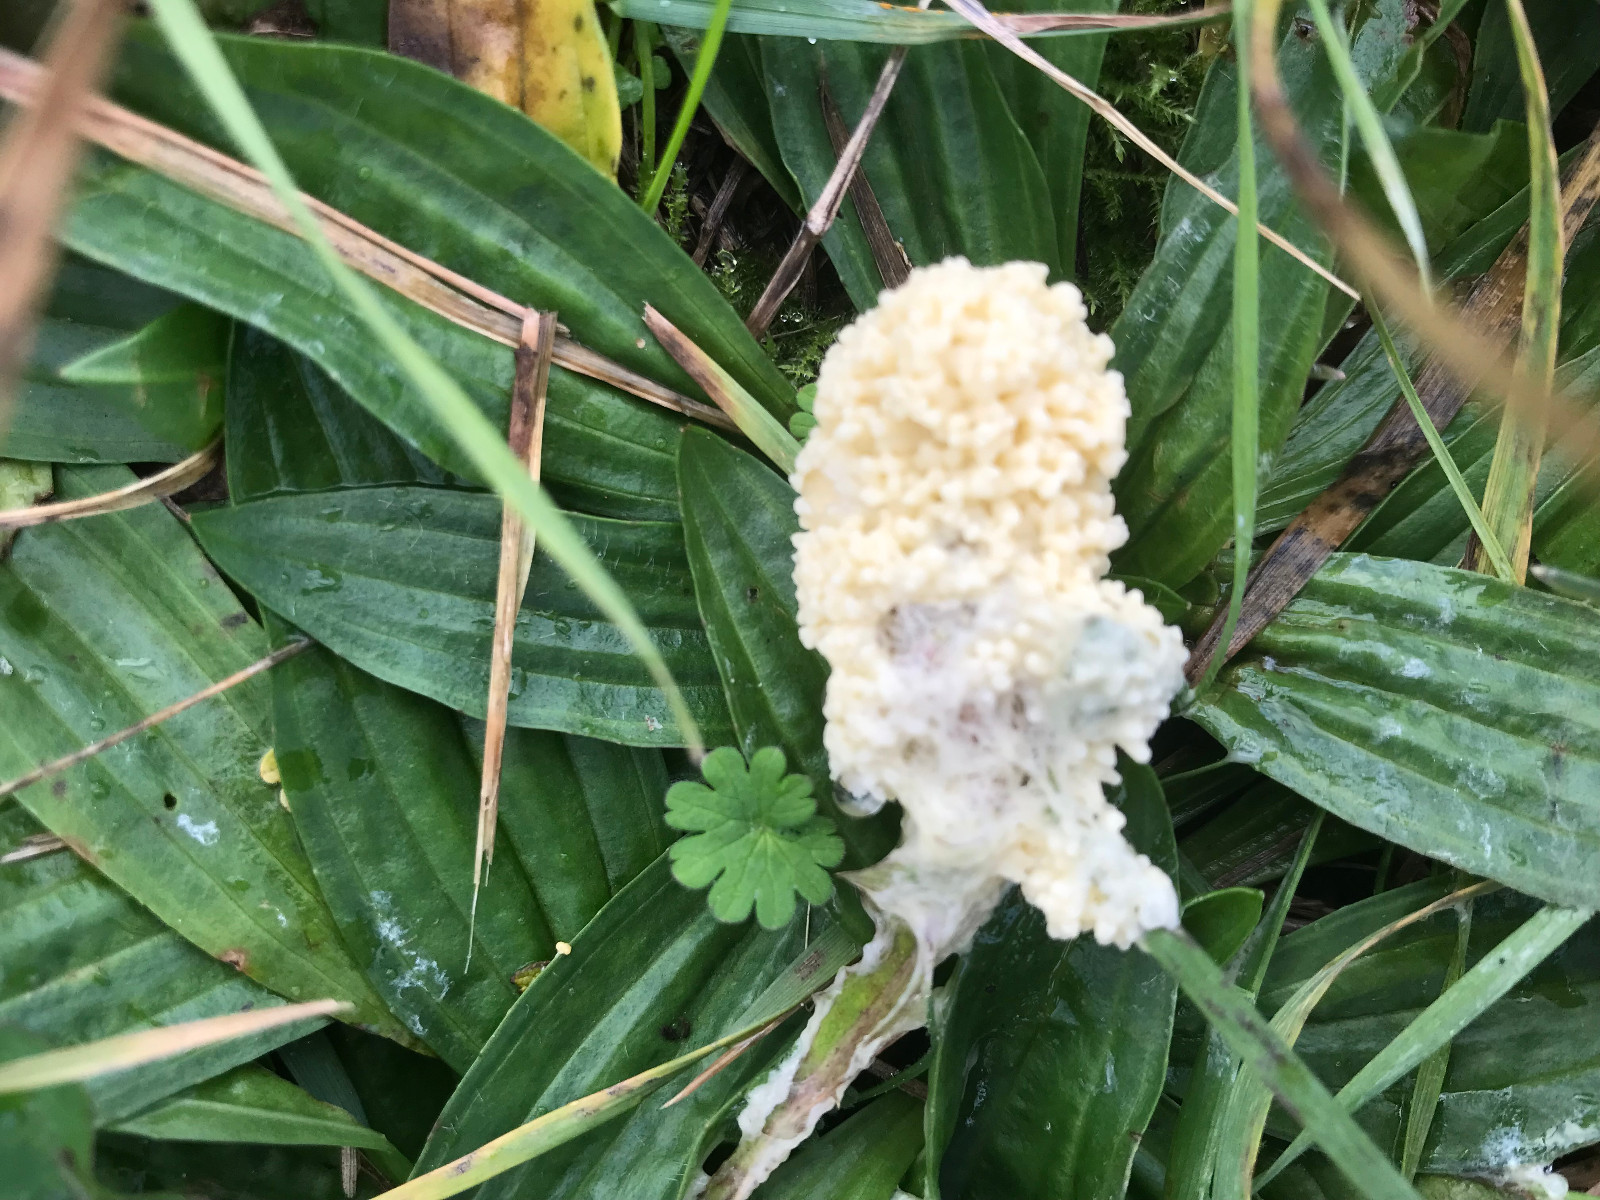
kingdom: Protozoa
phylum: Mycetozoa
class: Myxomycetes
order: Physarales
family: Physaraceae
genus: Didymium
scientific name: Didymium
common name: urteskum
